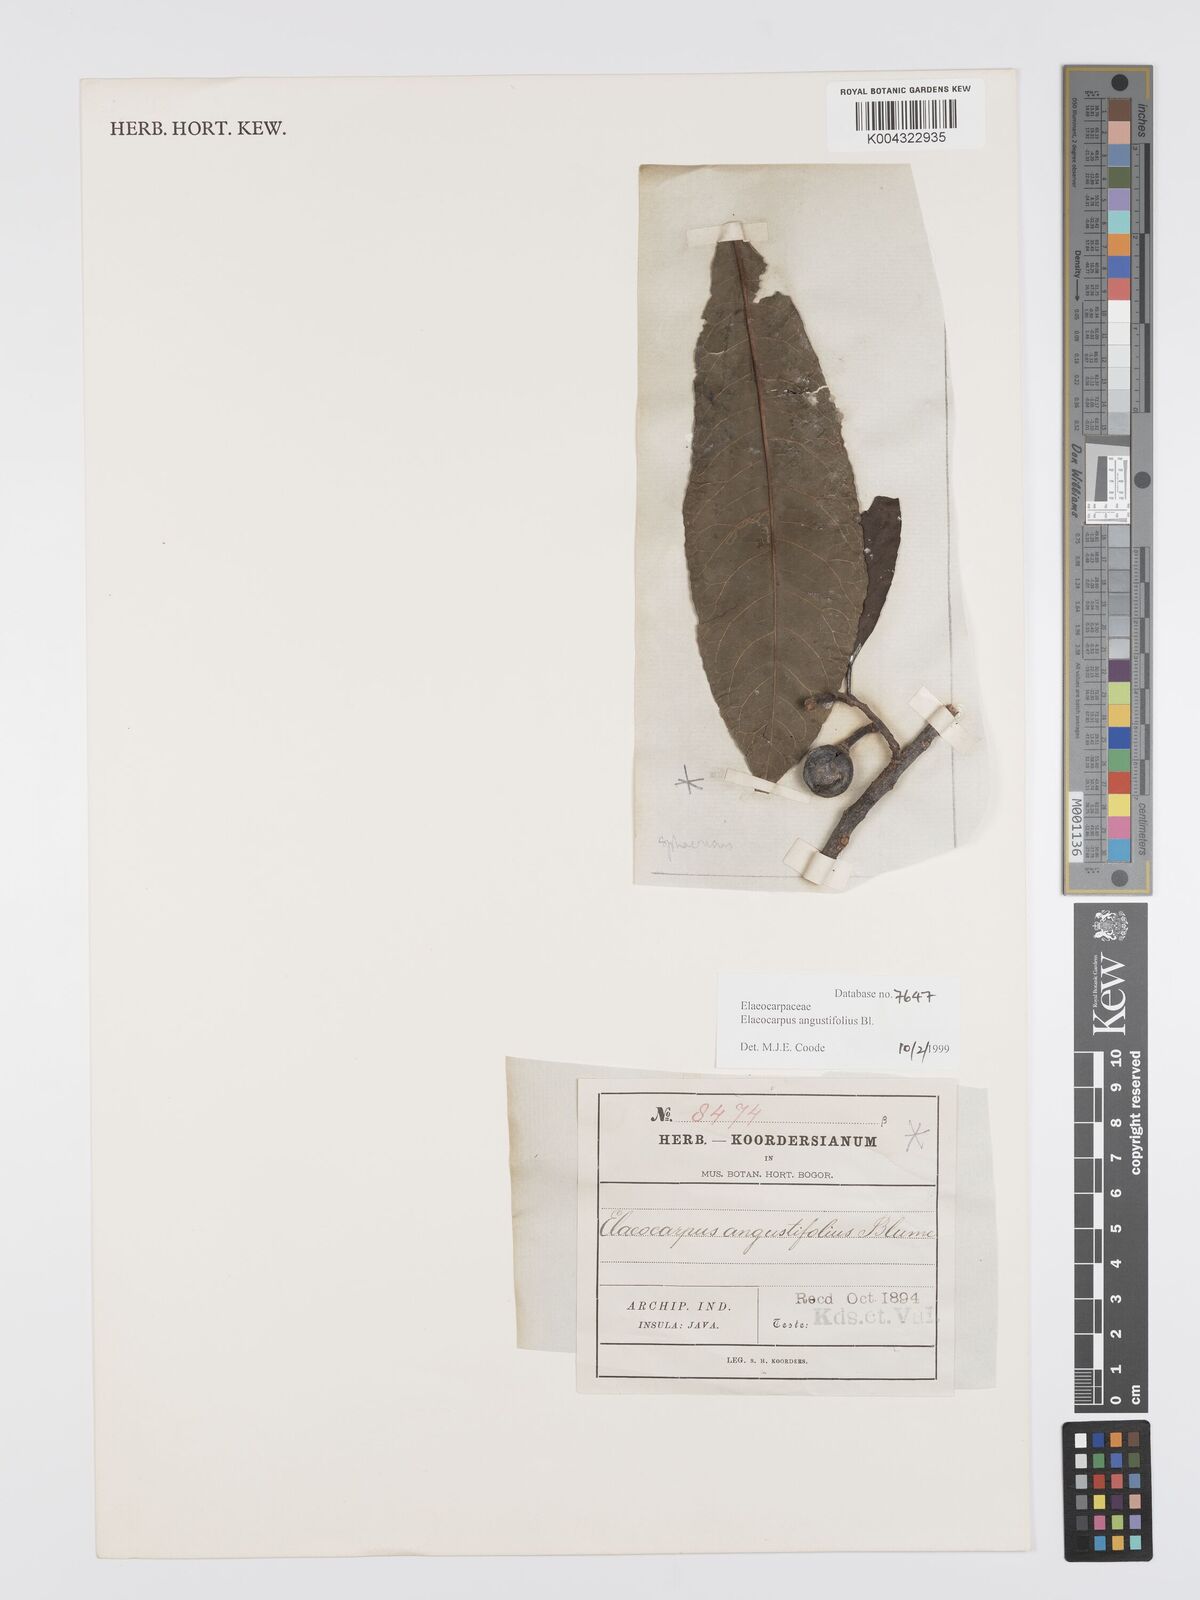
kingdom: Plantae
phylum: Tracheophyta
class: Magnoliopsida
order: Oxalidales
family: Elaeocarpaceae
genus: Elaeocarpus
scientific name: Elaeocarpus
